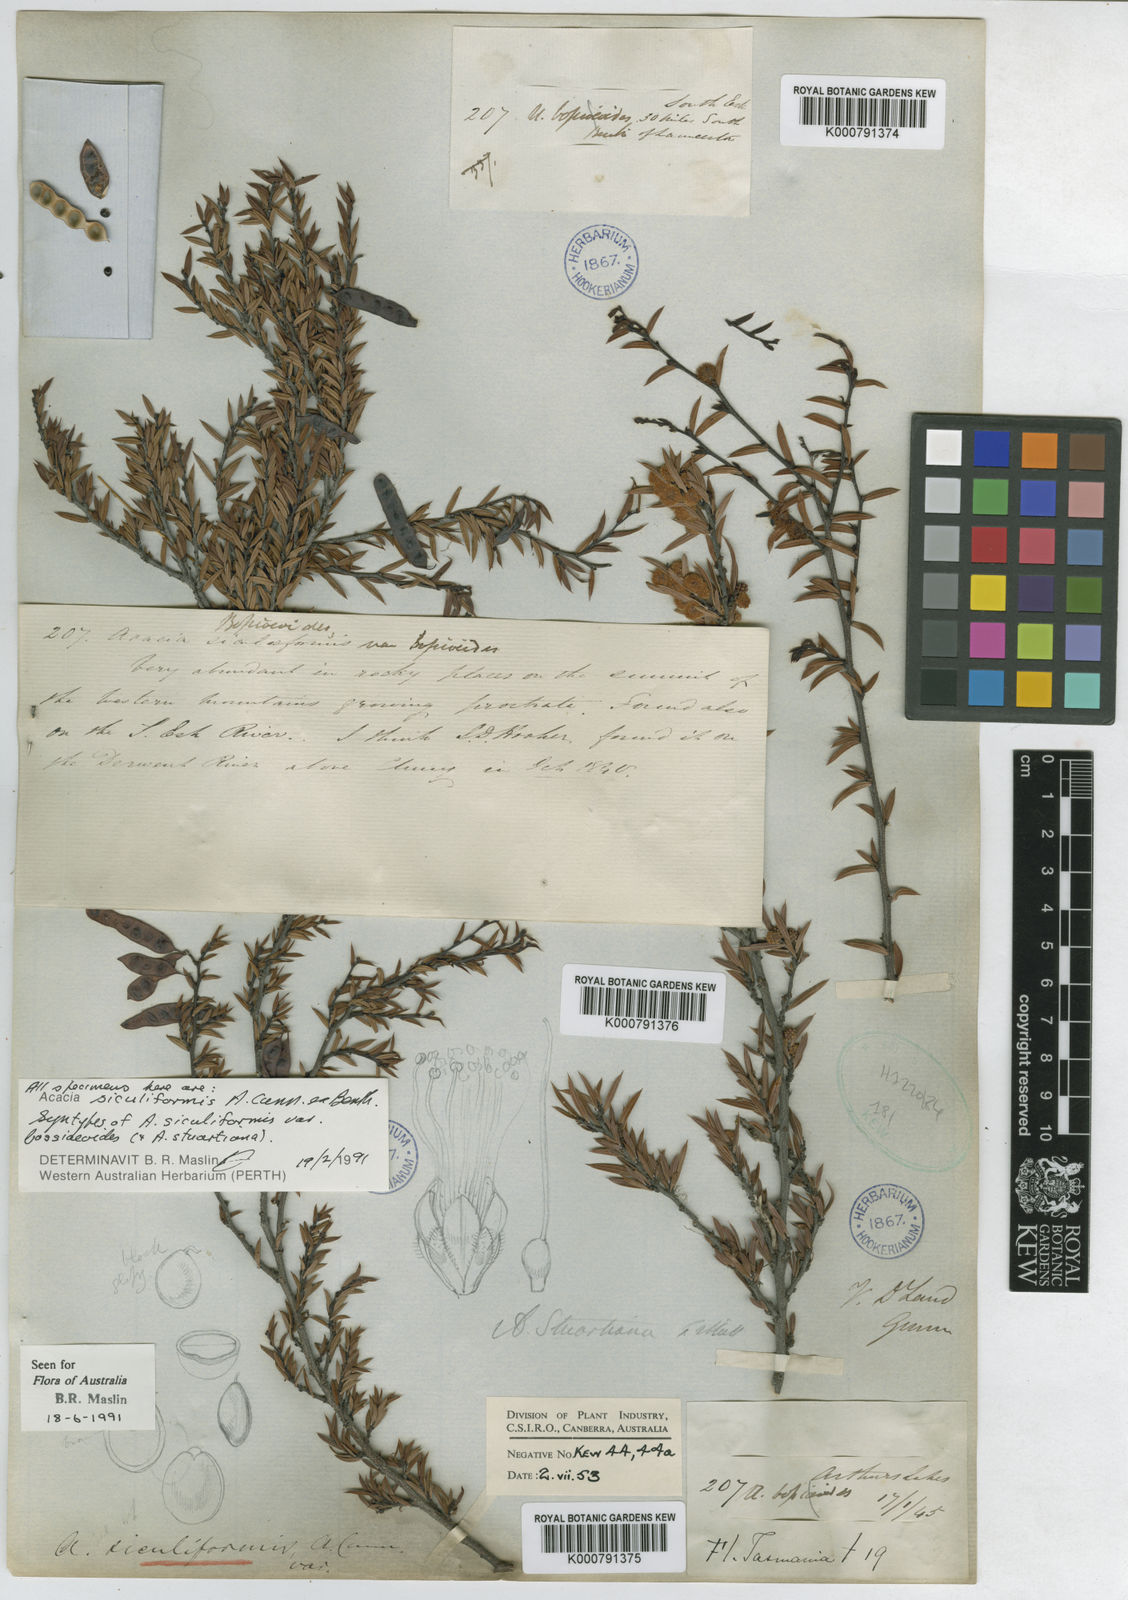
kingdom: Plantae
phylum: Tracheophyta
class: Magnoliopsida
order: Fabales
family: Fabaceae
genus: Acacia
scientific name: Acacia
